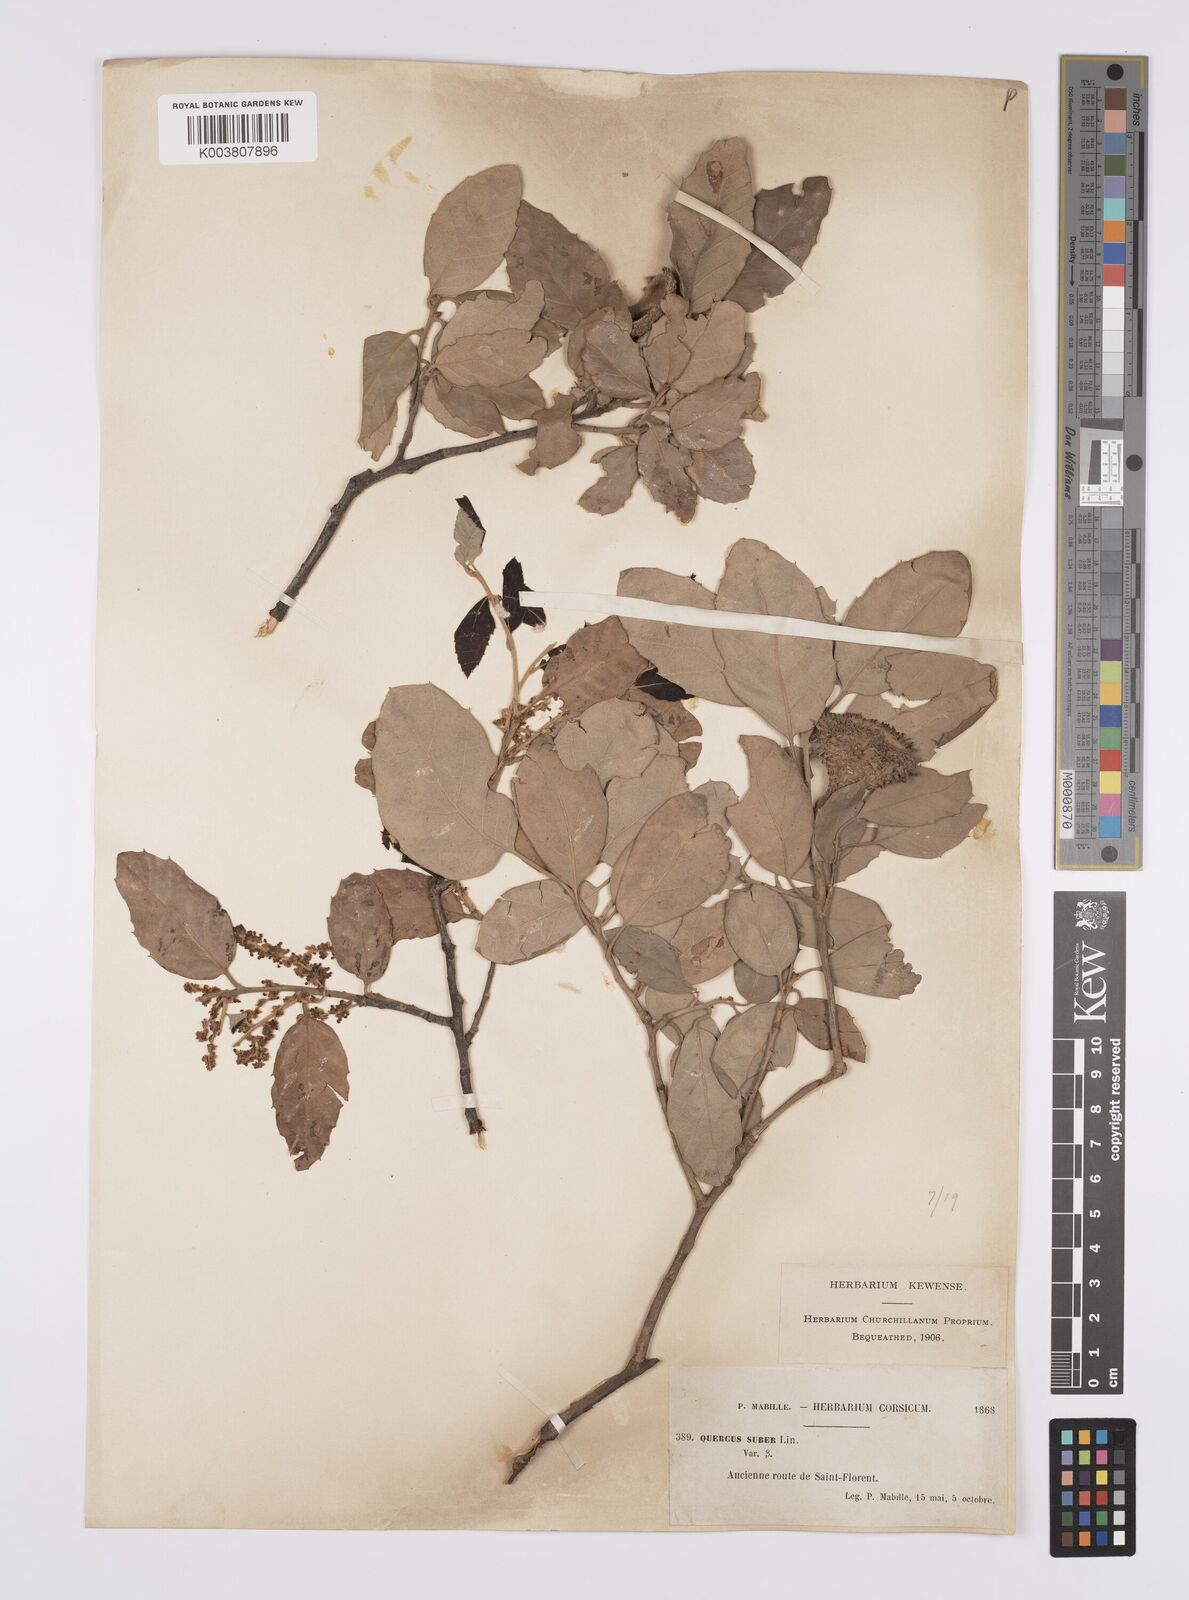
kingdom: Plantae
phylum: Tracheophyta
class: Magnoliopsida
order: Fagales
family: Fagaceae
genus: Quercus
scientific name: Quercus suber
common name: Cork oak
